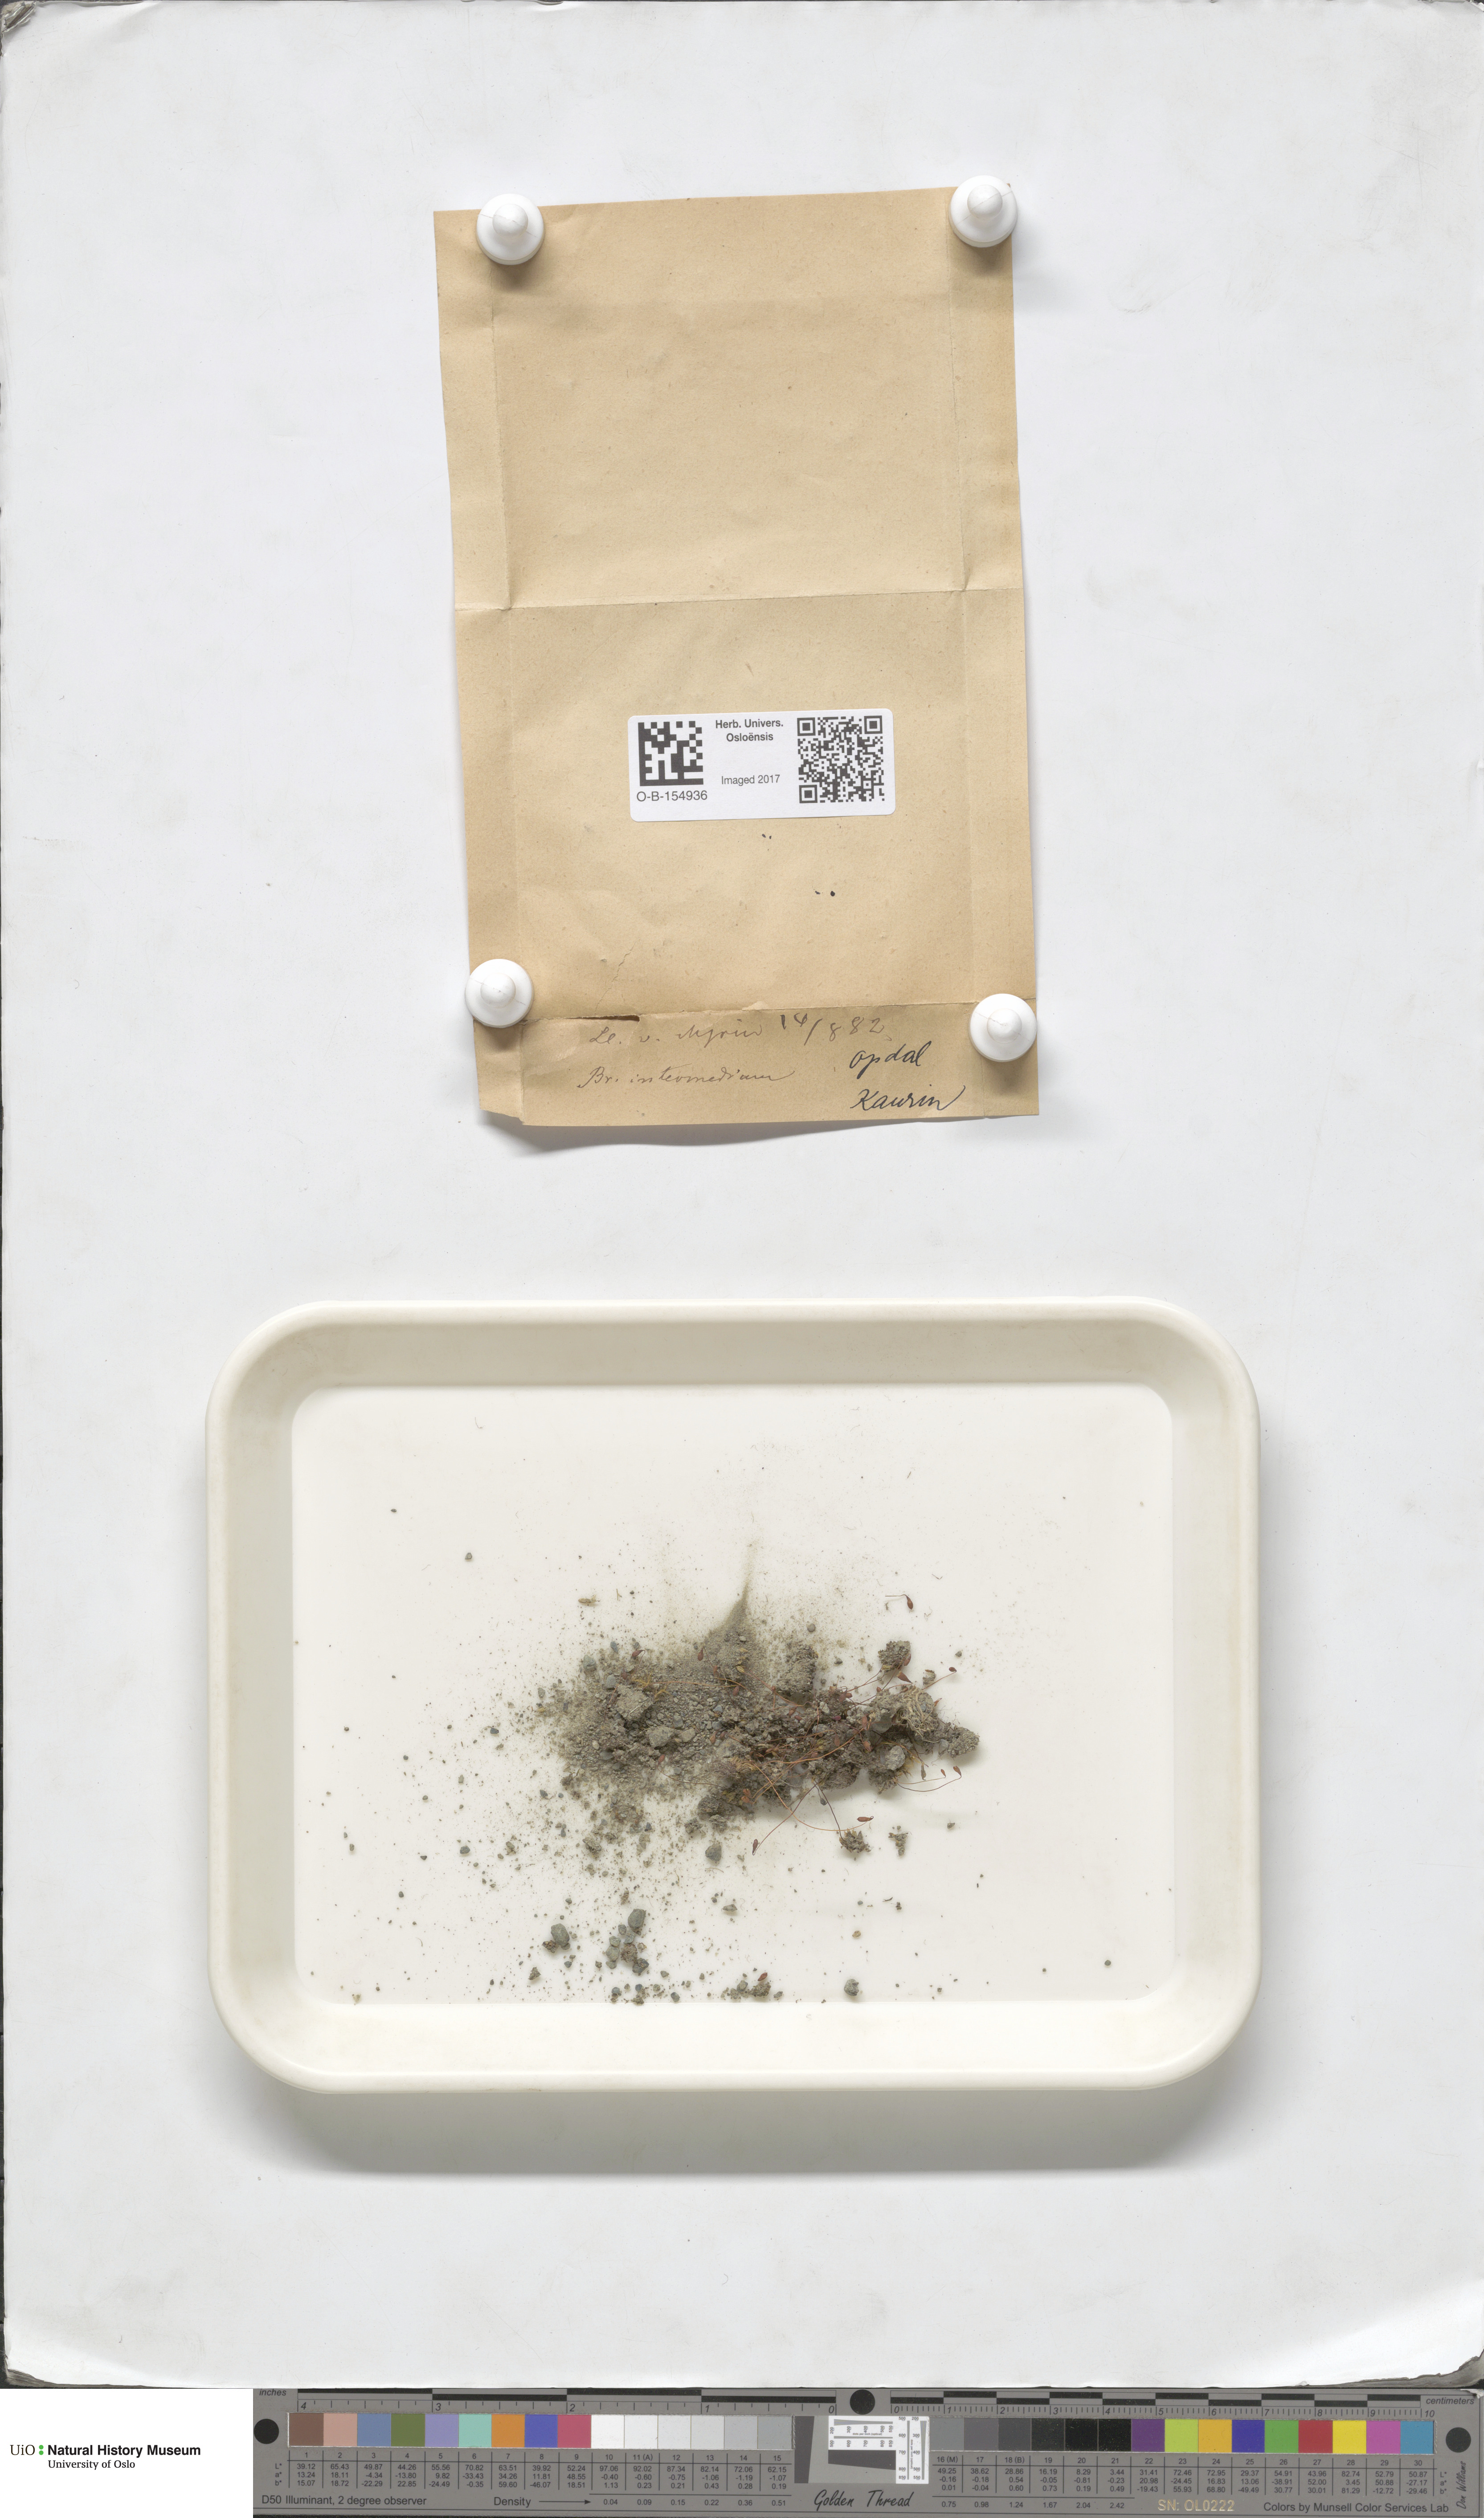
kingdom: Plantae
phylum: Bryophyta
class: Bryopsida
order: Bryales
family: Bryaceae
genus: Ptychostomum
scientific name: Ptychostomum intermedium
